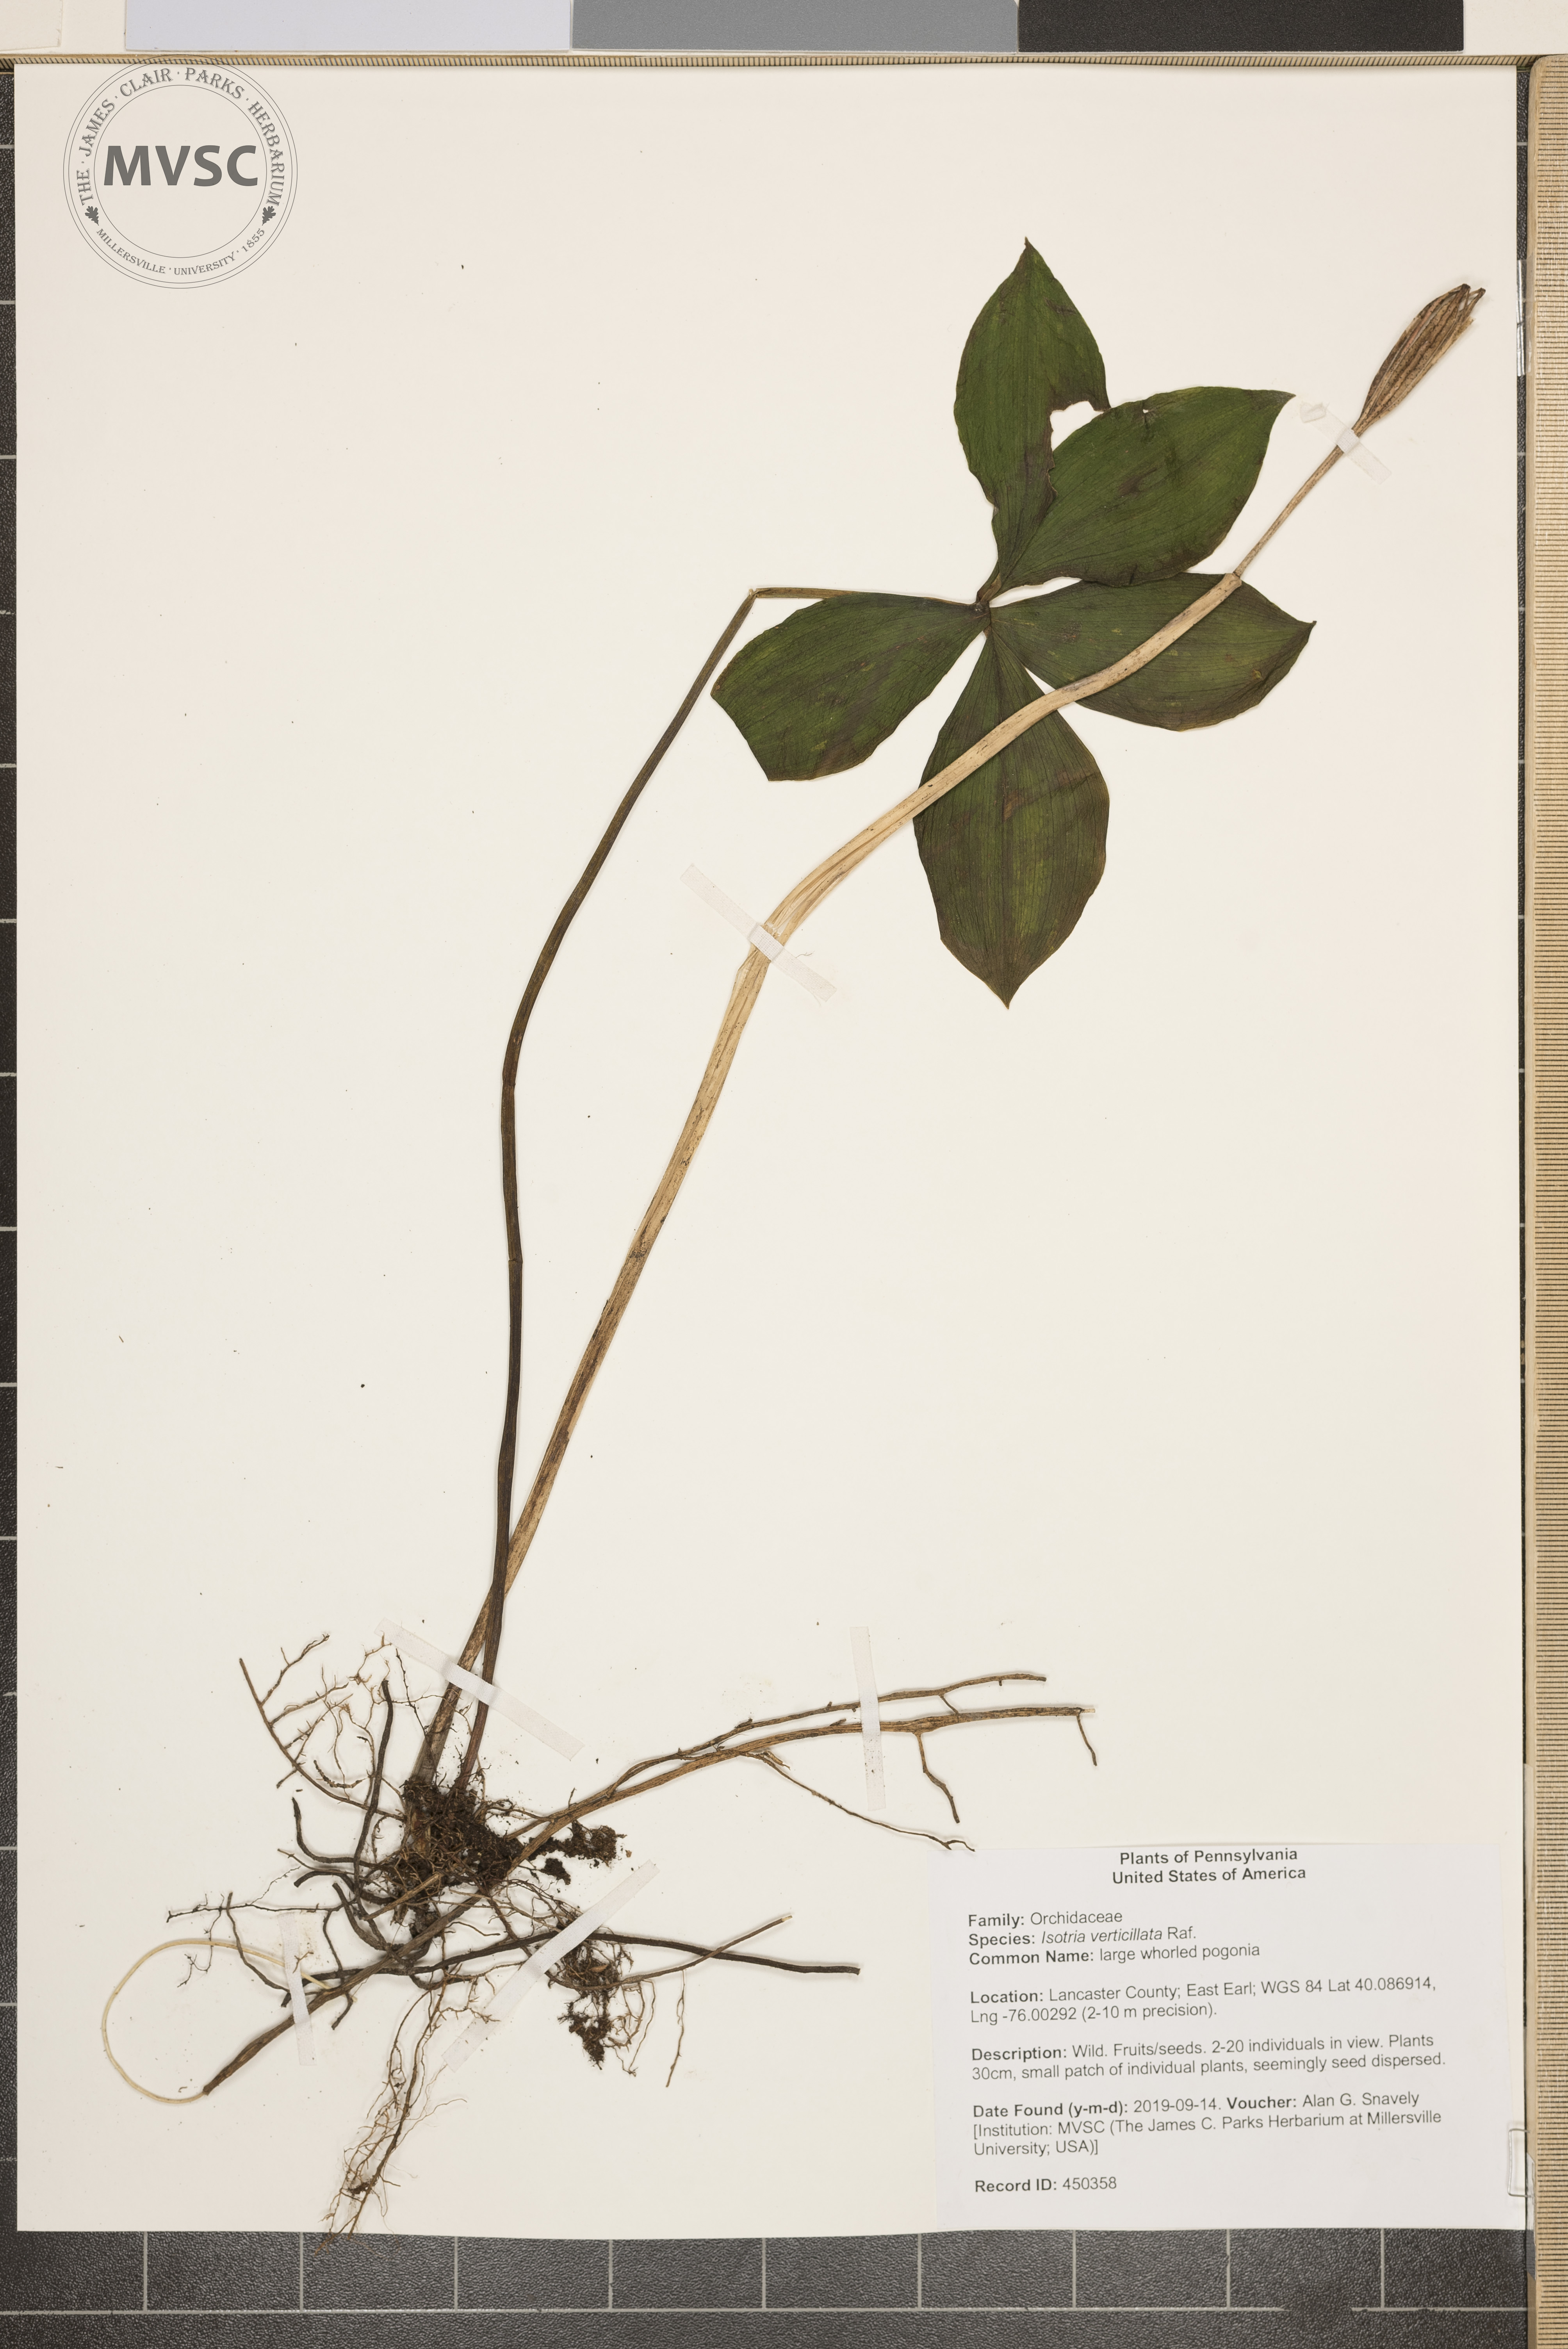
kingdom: Plantae
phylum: Tracheophyta
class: Liliopsida
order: Asparagales
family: Orchidaceae
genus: Isotria
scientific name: Isotria verticillata
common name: large whorled pogonia
